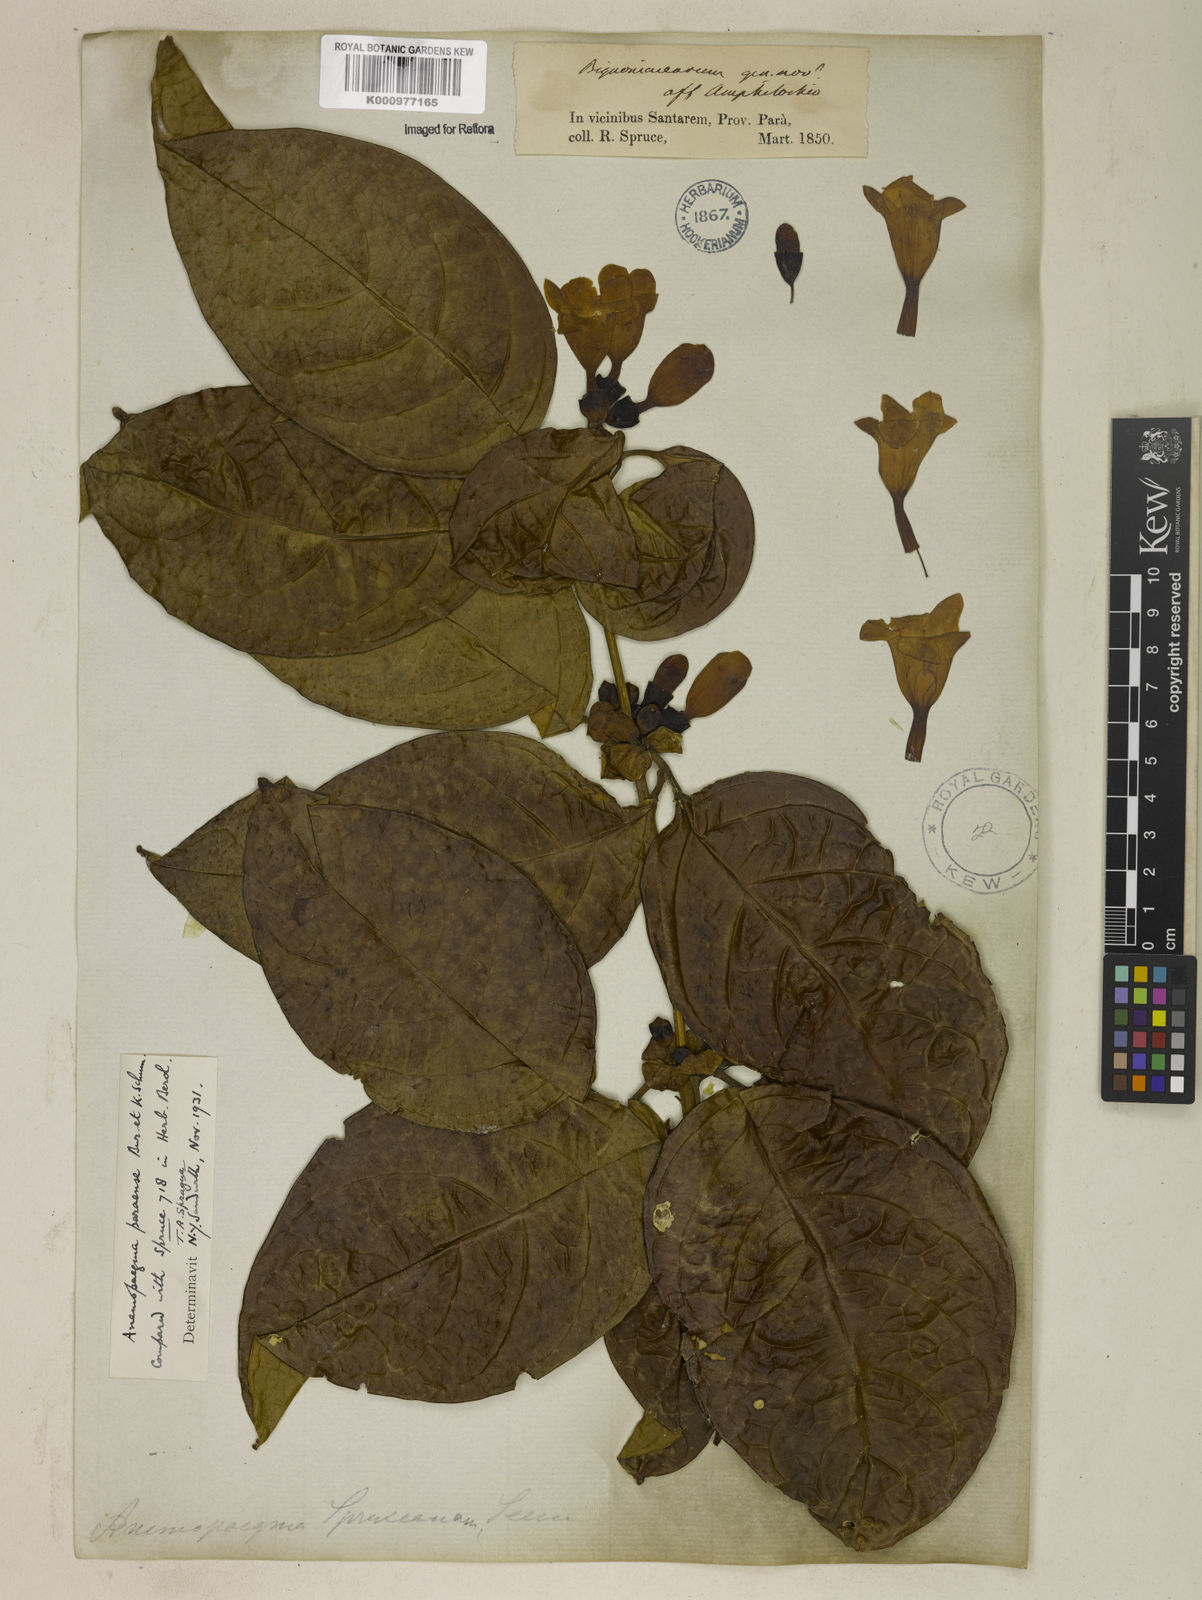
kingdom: Plantae
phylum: Tracheophyta
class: Magnoliopsida
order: Lamiales
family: Bignoniaceae
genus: Anemopaegma
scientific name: Anemopaegma
